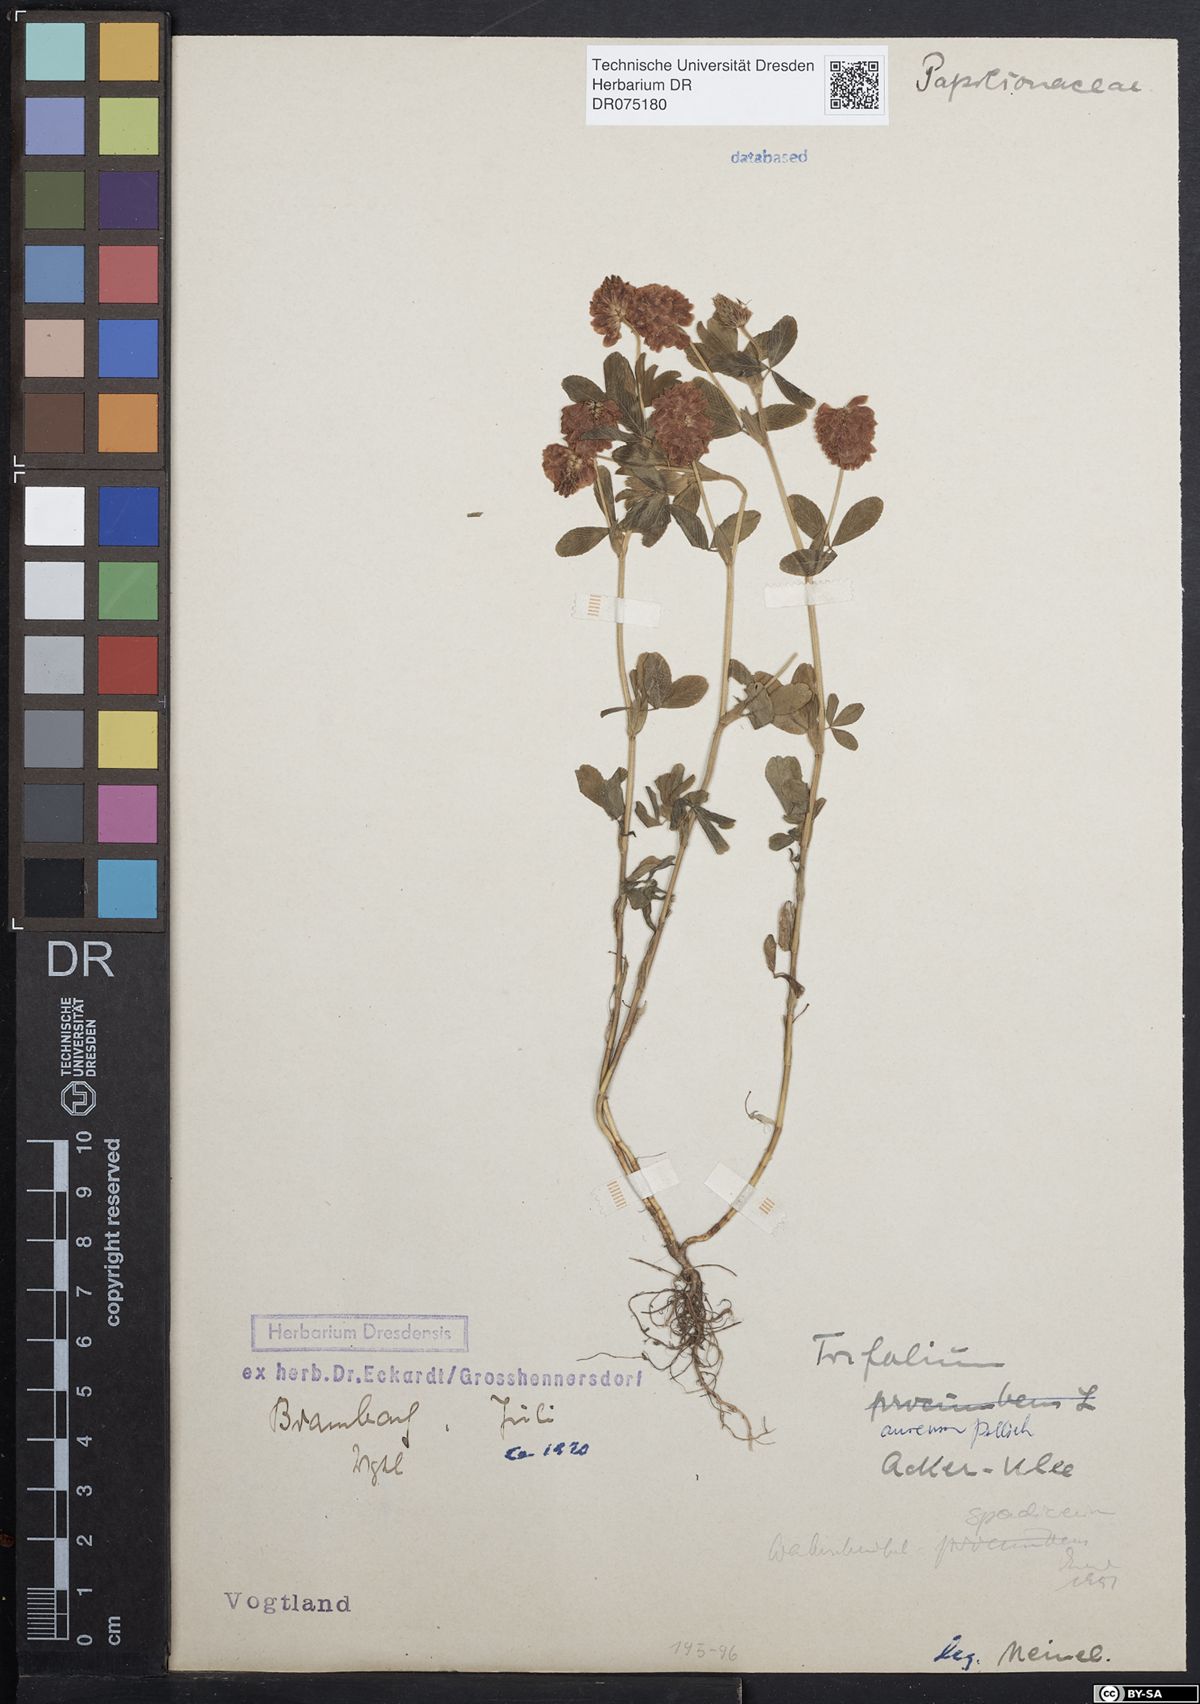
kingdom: Plantae
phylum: Tracheophyta
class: Magnoliopsida
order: Fabales
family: Fabaceae
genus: Trifolium
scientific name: Trifolium aureum
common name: Golden clover
